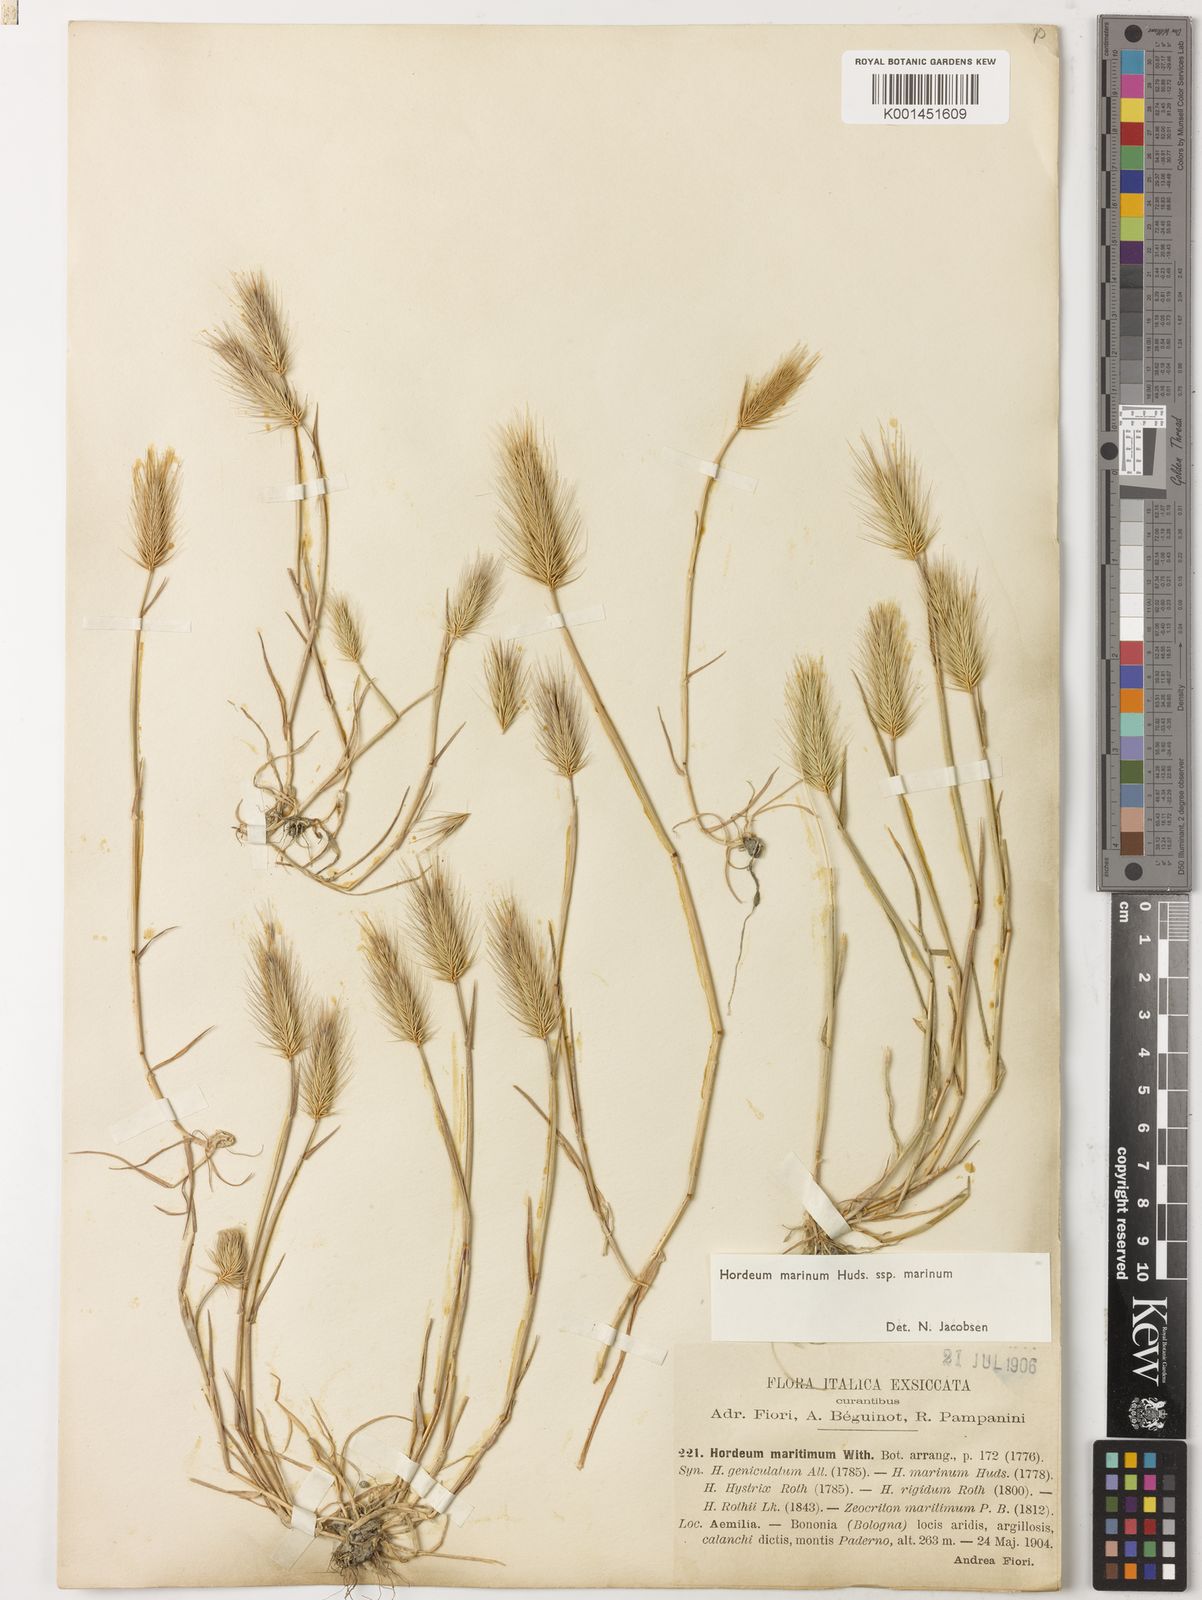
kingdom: Plantae
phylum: Tracheophyta
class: Liliopsida
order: Poales
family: Poaceae
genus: Hordeum
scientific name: Hordeum marinum
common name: Sea barley
